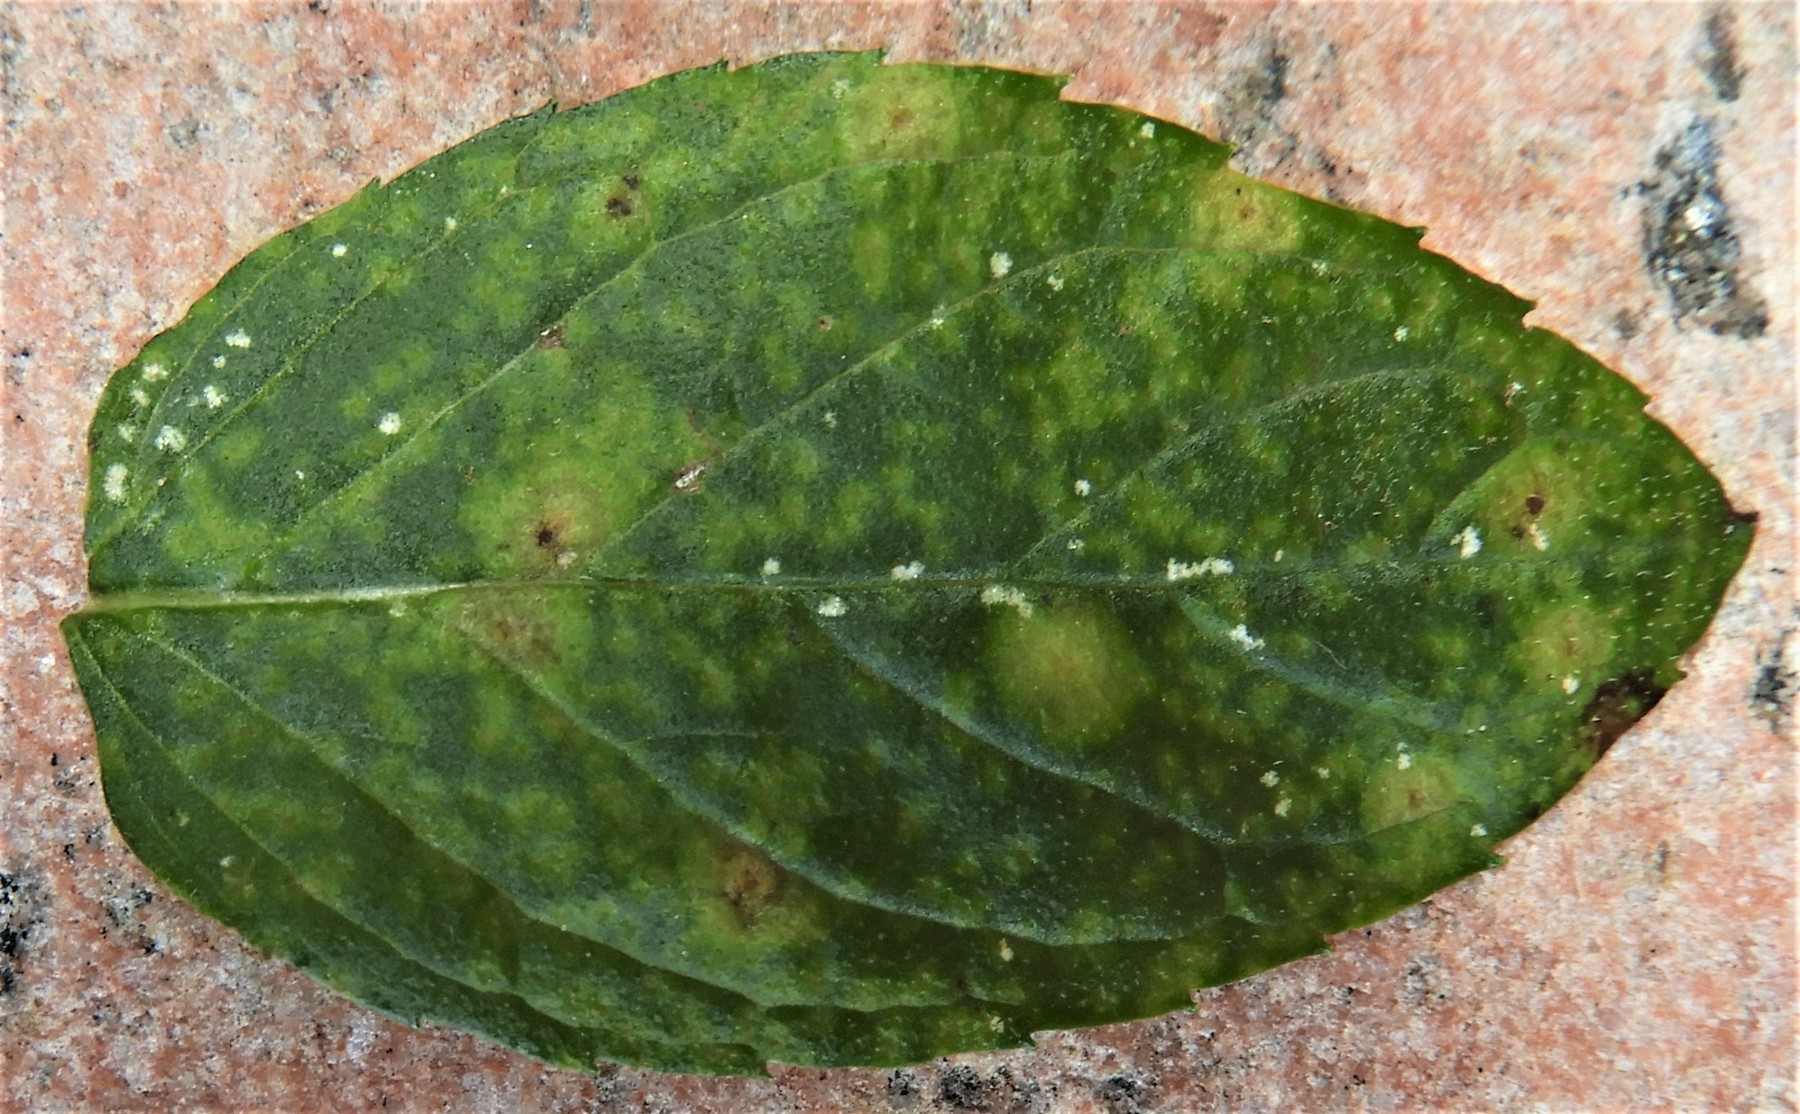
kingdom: Fungi
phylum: Basidiomycota
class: Pucciniomycetes
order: Pucciniales
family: Pucciniaceae
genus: Puccinia
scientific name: Puccinia menthae
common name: Mint rust
